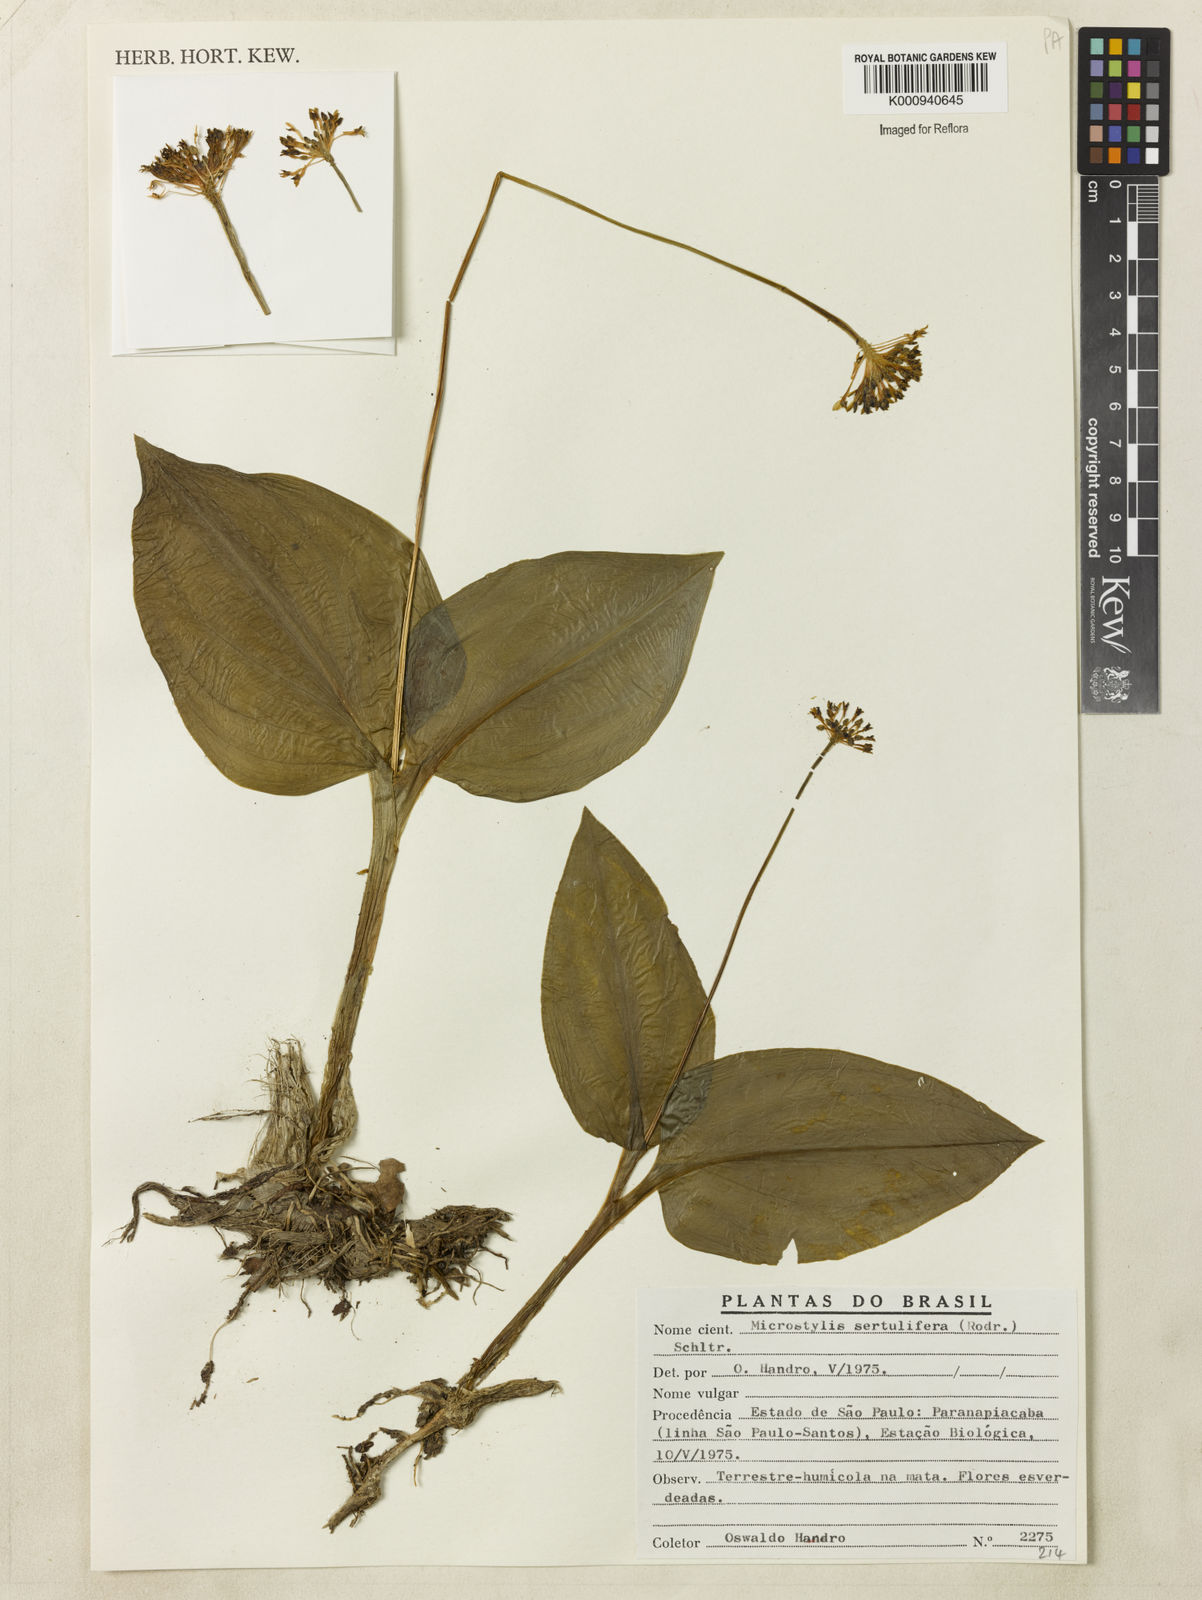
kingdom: Plantae
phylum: Tracheophyta
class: Liliopsida
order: Asparagales
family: Orchidaceae
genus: Malaxis
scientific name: Malaxis excavata
